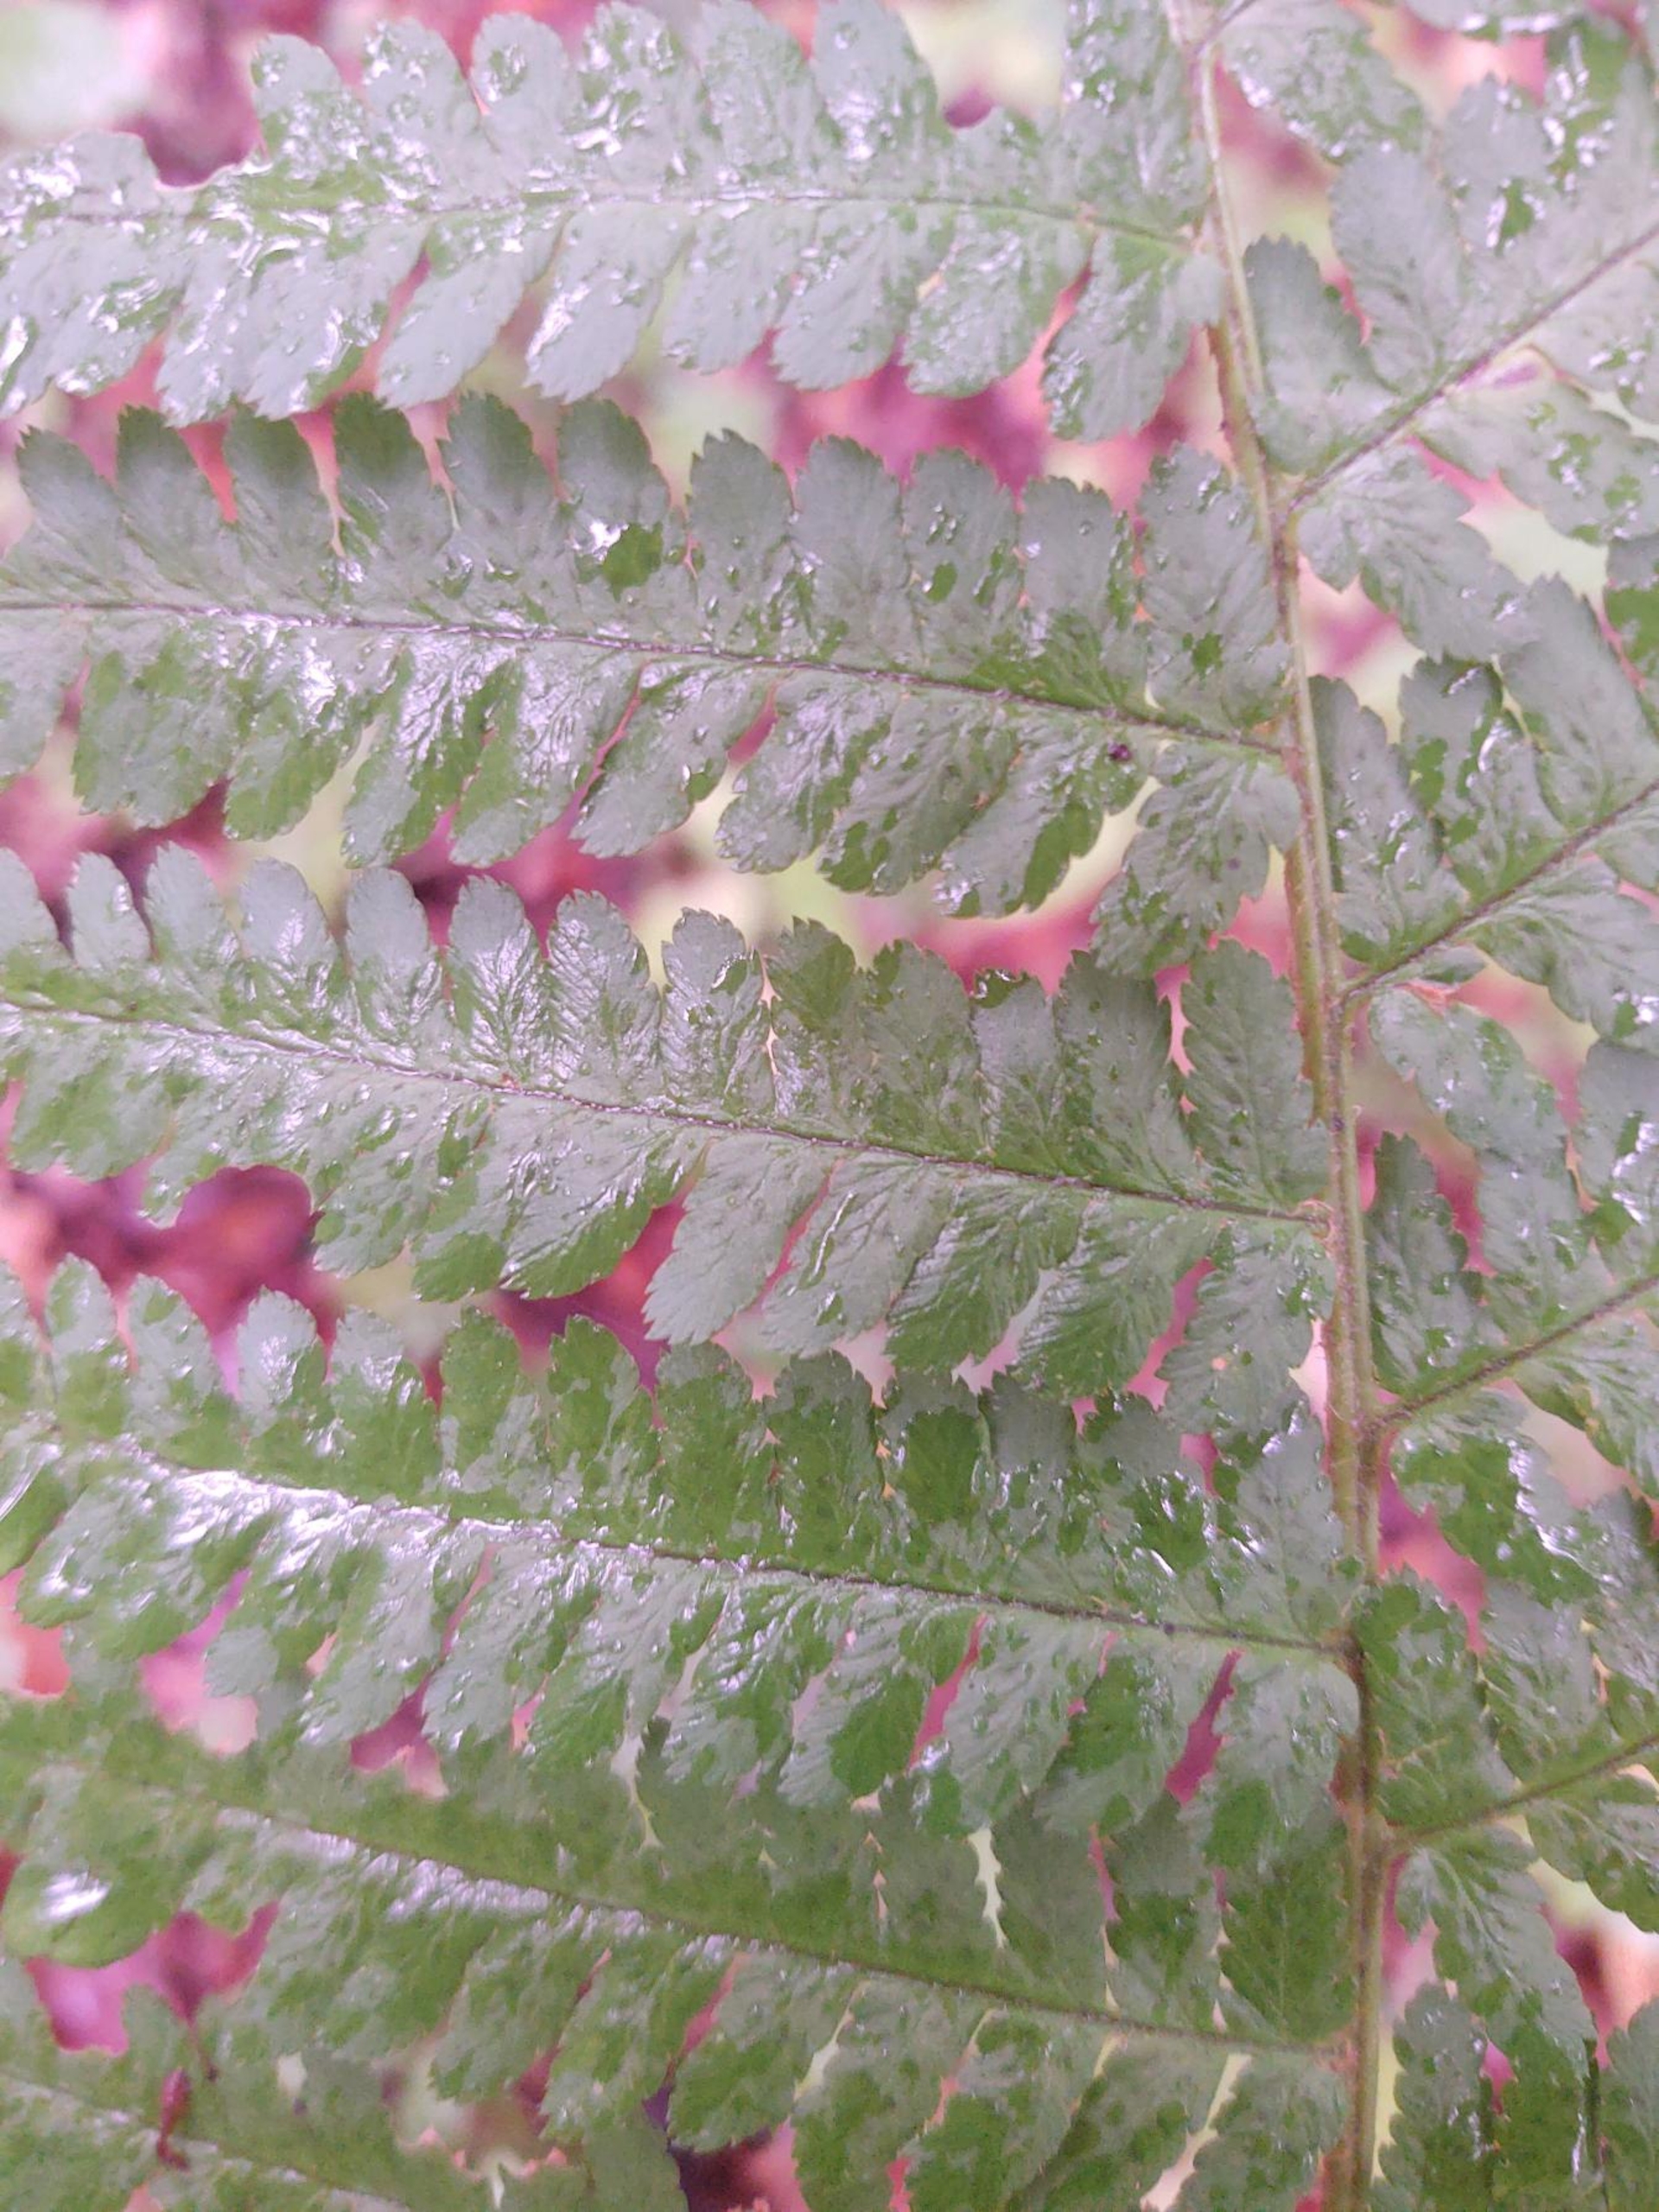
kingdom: Plantae
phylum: Tracheophyta
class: Polypodiopsida
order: Polypodiales
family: Dryopteridaceae
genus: Dryopteris
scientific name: Dryopteris filix-mas
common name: Almindelig mangeløv
